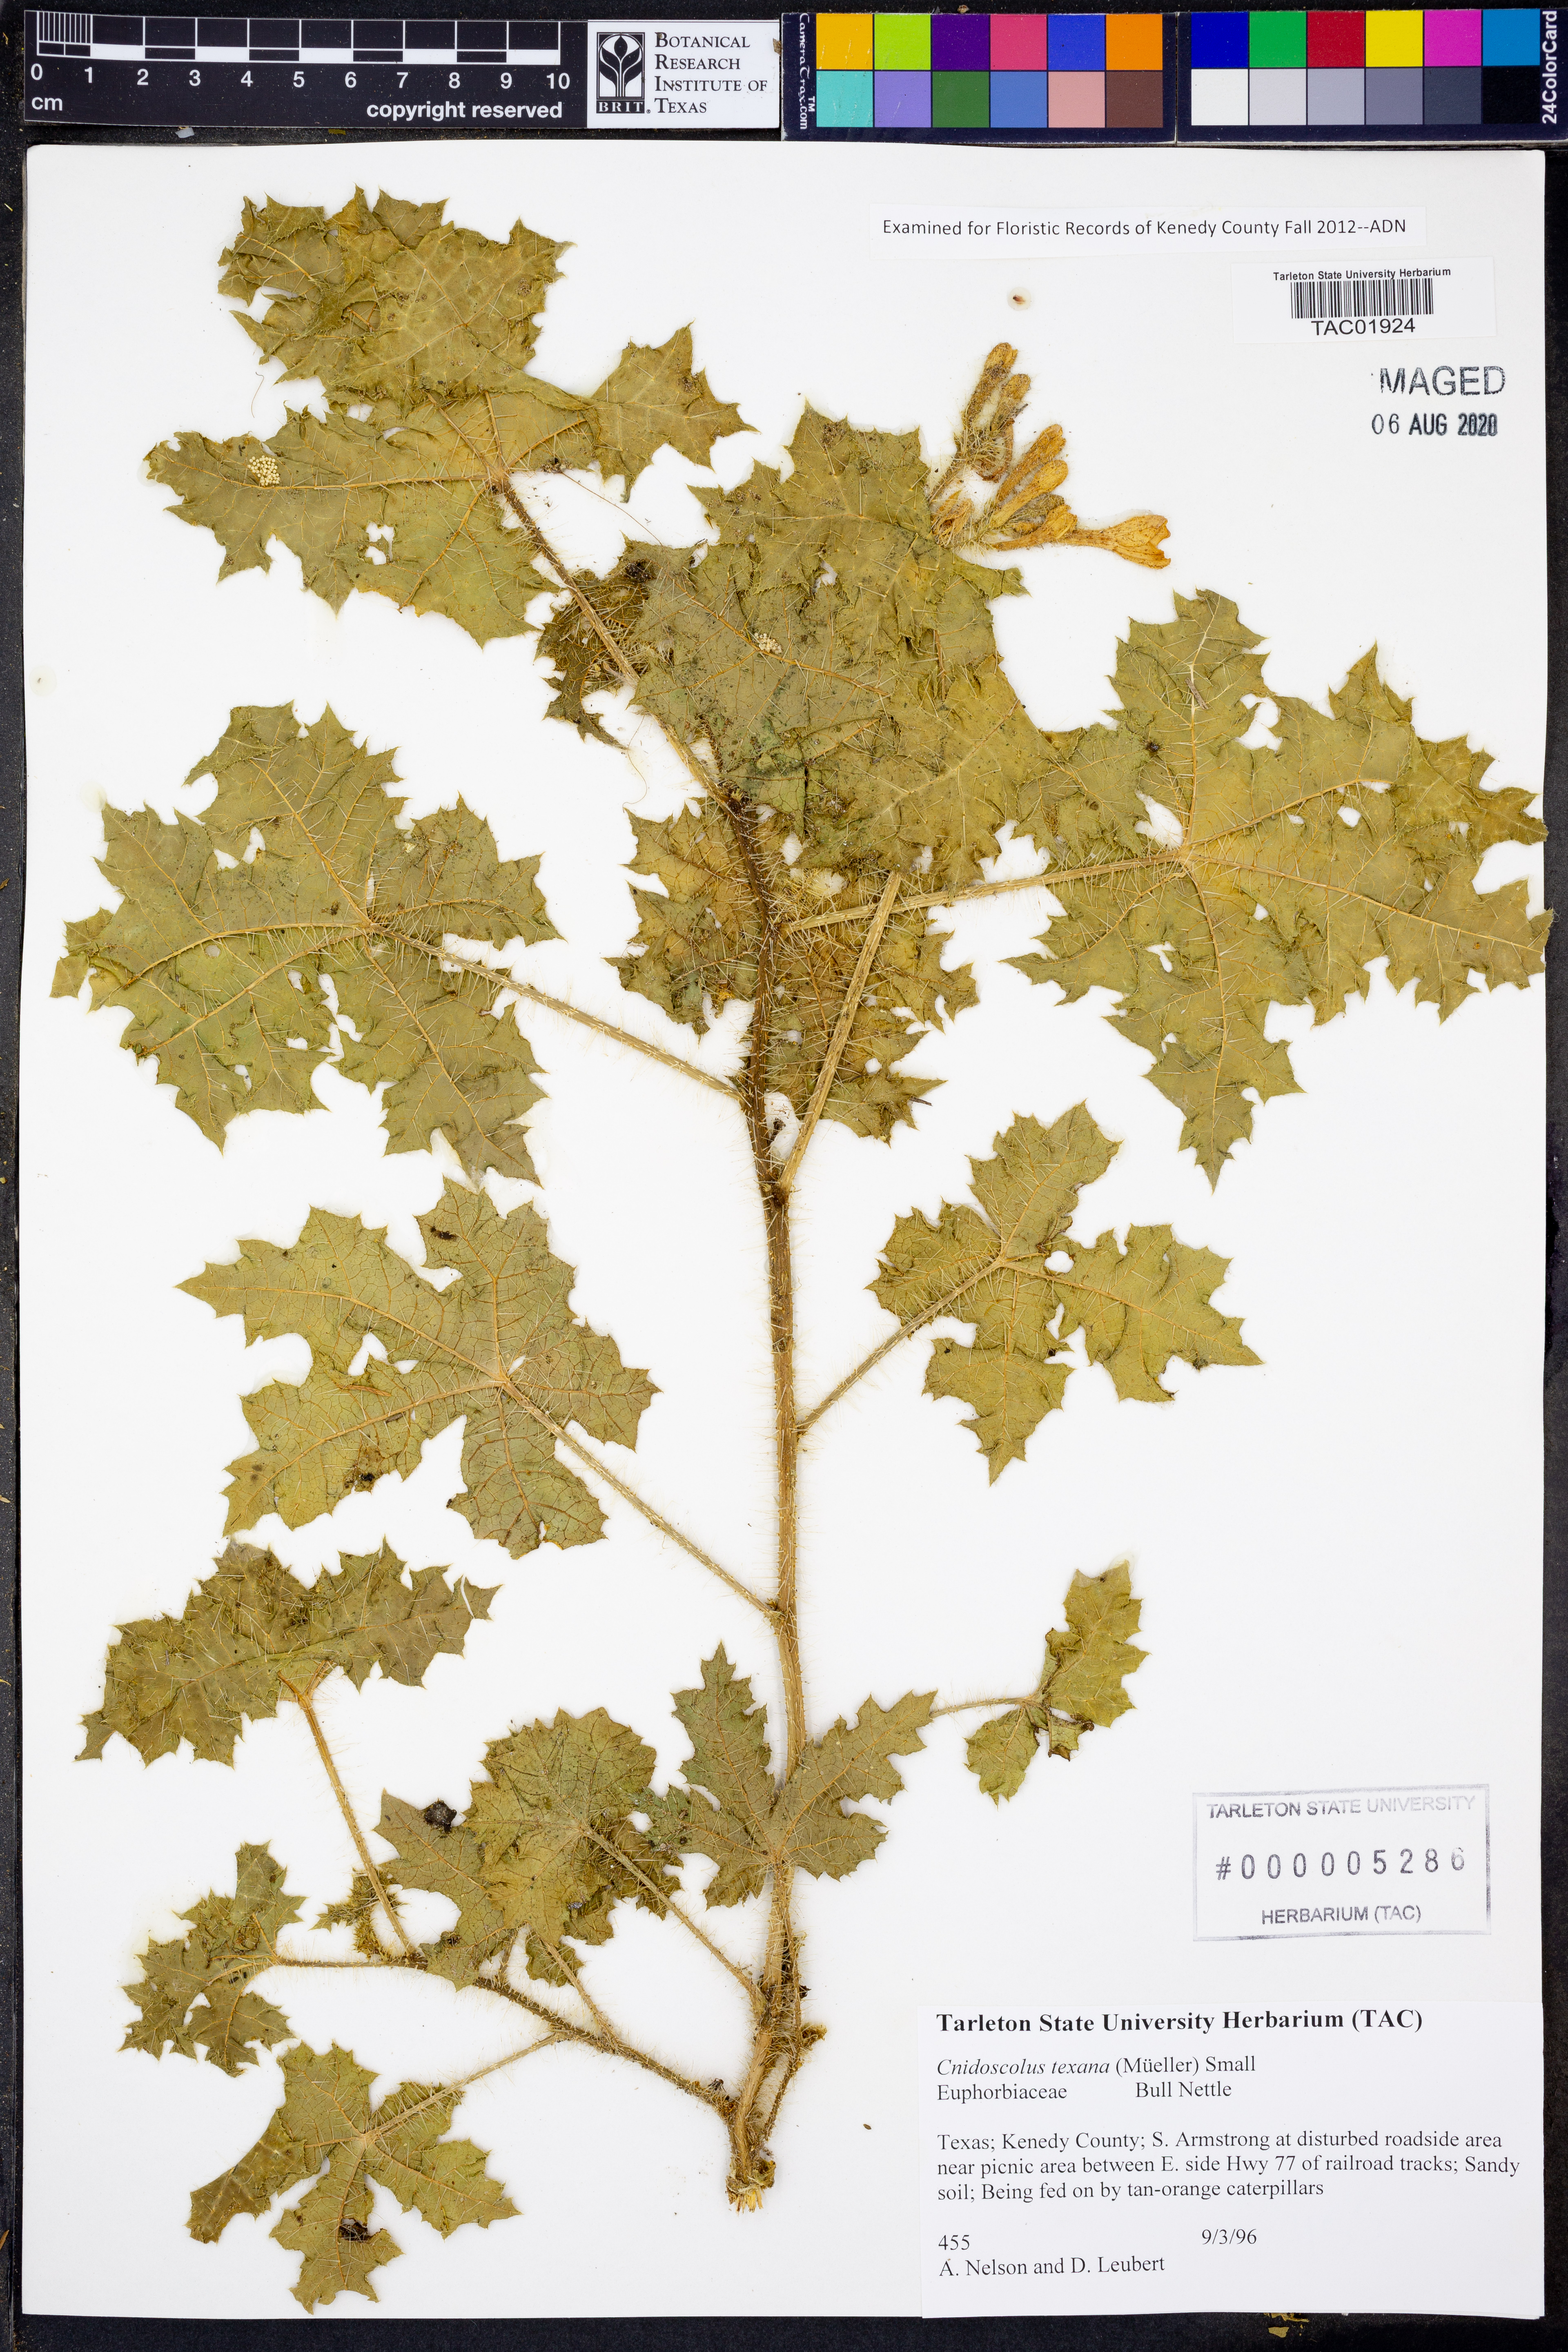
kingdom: Plantae
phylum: Tracheophyta
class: Magnoliopsida
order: Malpighiales
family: Euphorbiaceae
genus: Cnidoscolus
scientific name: Cnidoscolus texanus
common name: Texas bull-nettle
